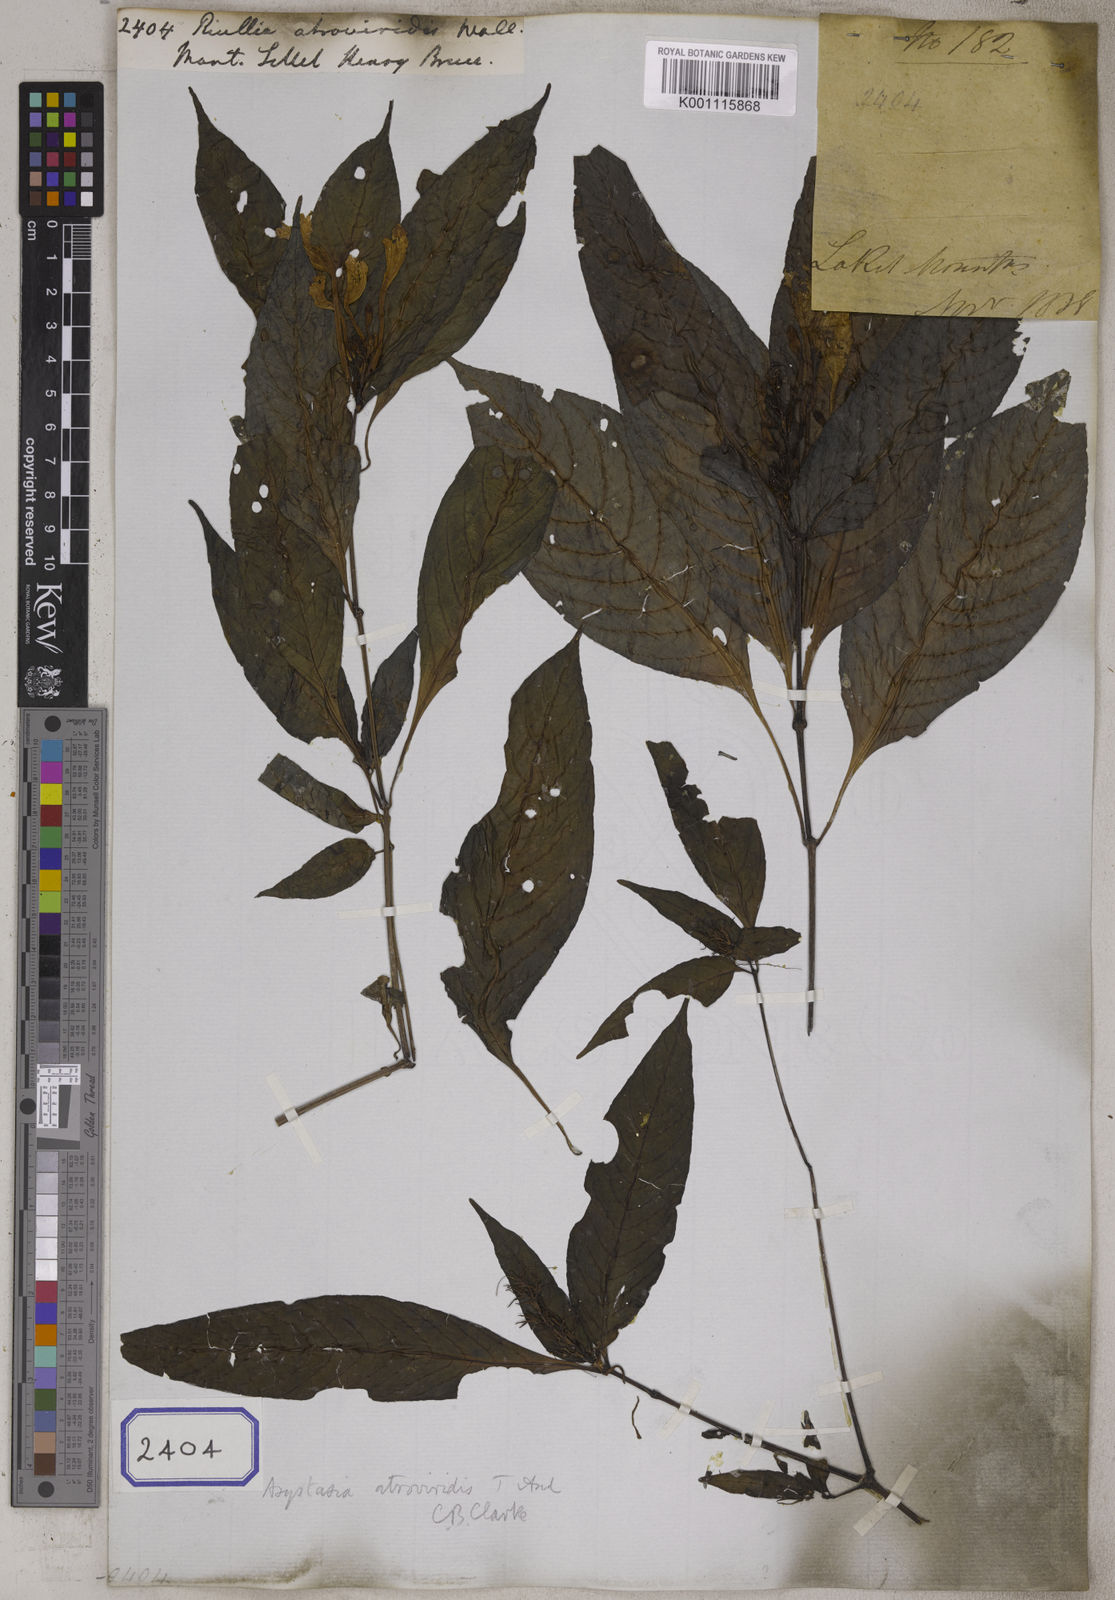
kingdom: Plantae
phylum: Tracheophyta
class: Magnoliopsida
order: Lamiales
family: Acanthaceae
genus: Mackaya
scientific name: Mackaya atroviridis
